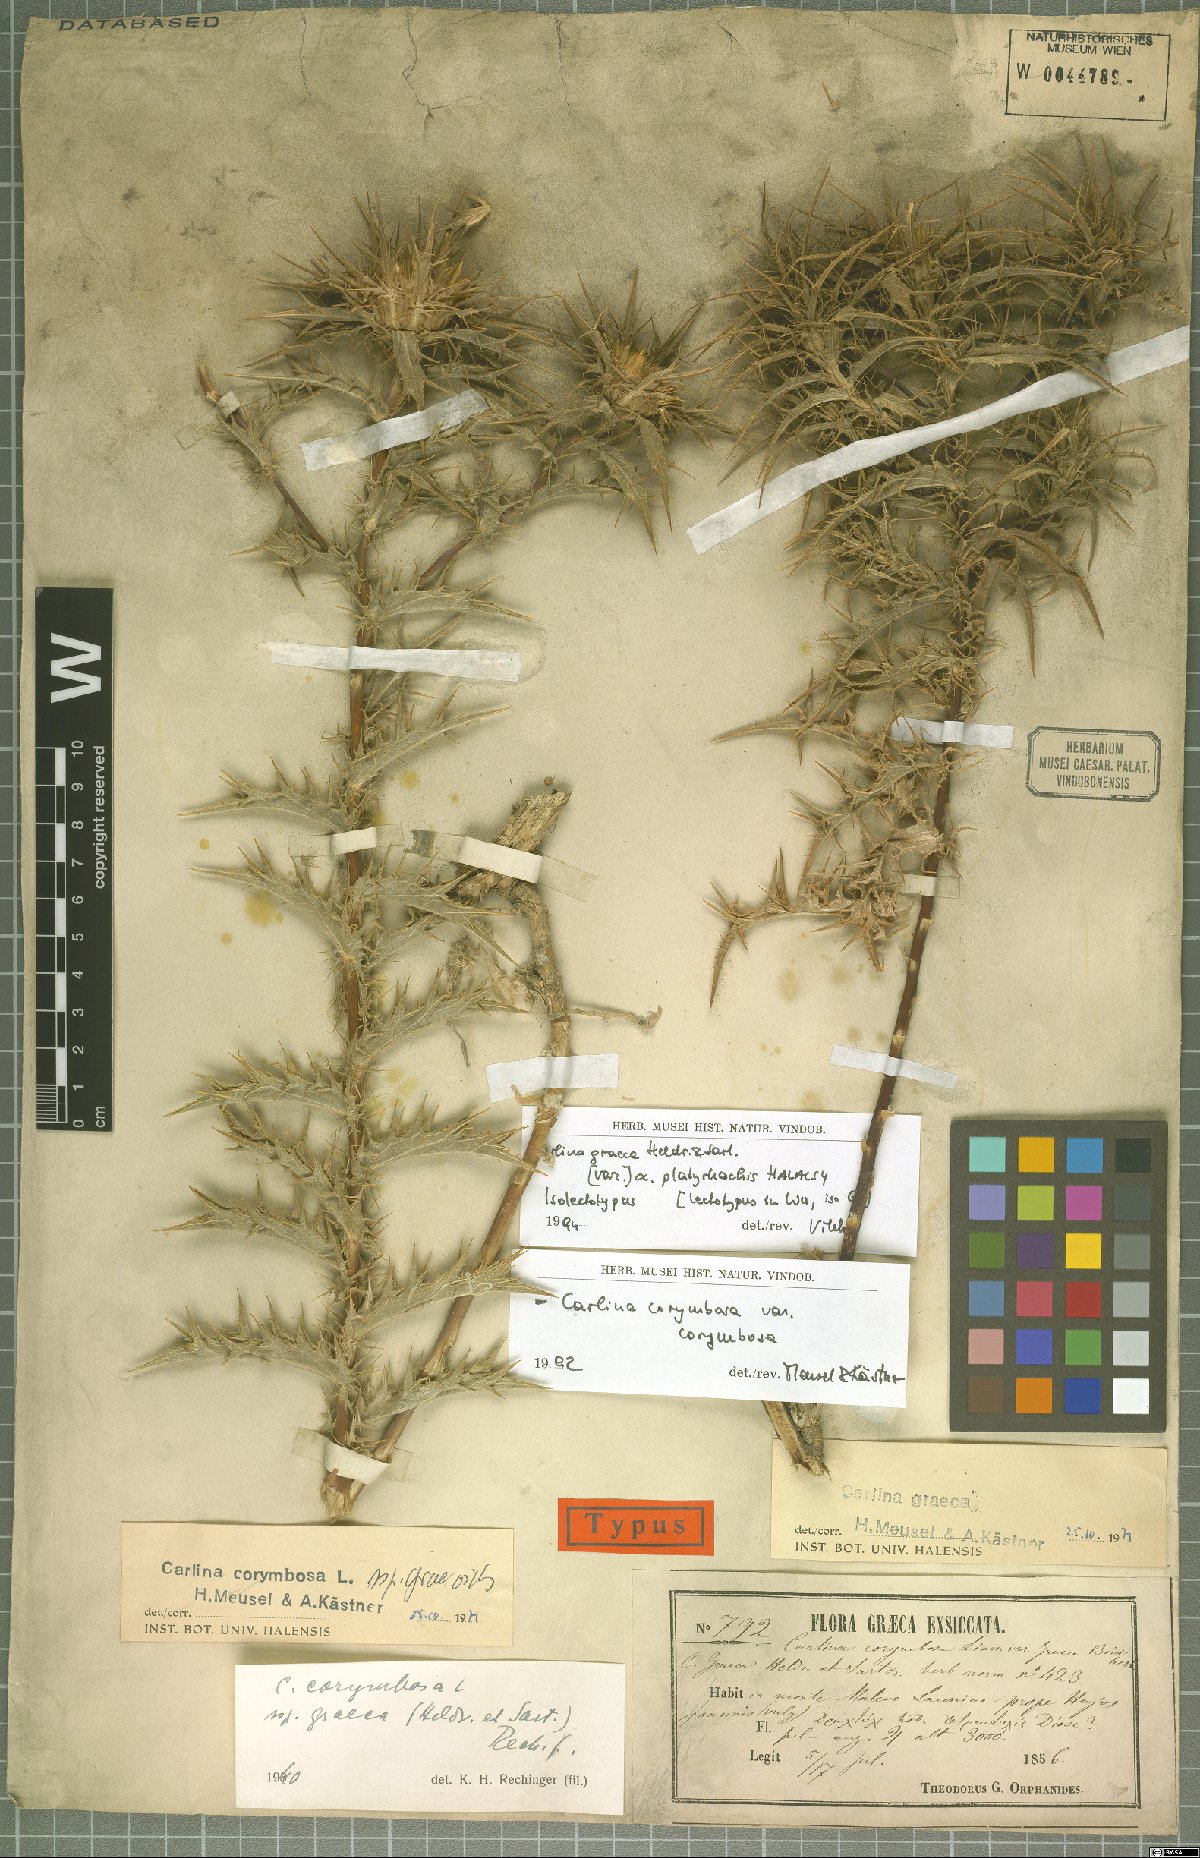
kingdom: Plantae
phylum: Tracheophyta
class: Magnoliopsida
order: Asterales
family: Asteraceae
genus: Carlina
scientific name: Carlina corymbosa
